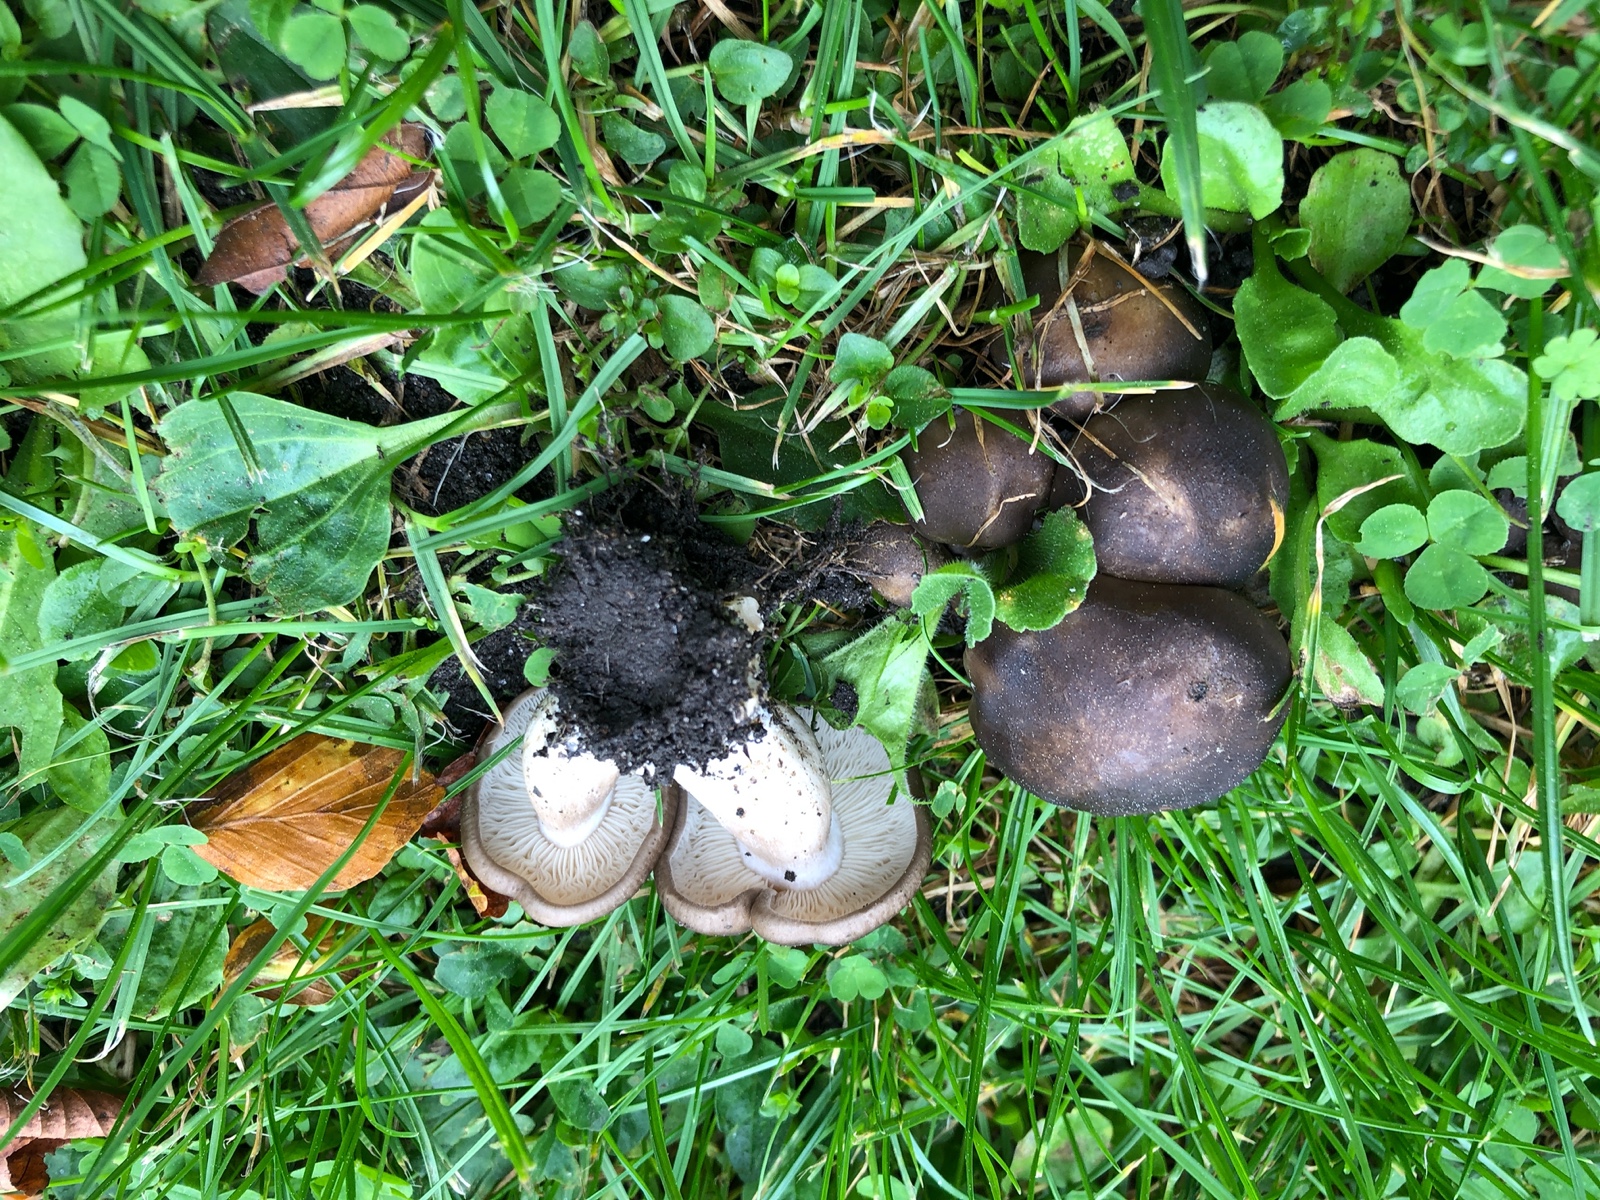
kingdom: Fungi
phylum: Basidiomycota
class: Agaricomycetes
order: Agaricales
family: Lyophyllaceae
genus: Lyophyllum
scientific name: Lyophyllum decastes
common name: røggrå gråblad
